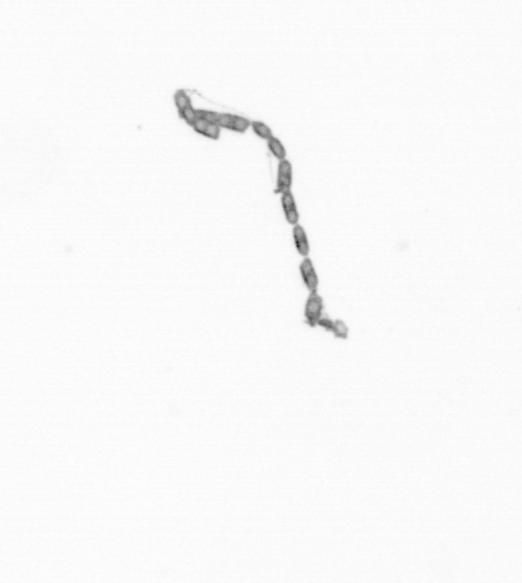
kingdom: Chromista
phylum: Ochrophyta
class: Bacillariophyceae
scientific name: Bacillariophyceae
